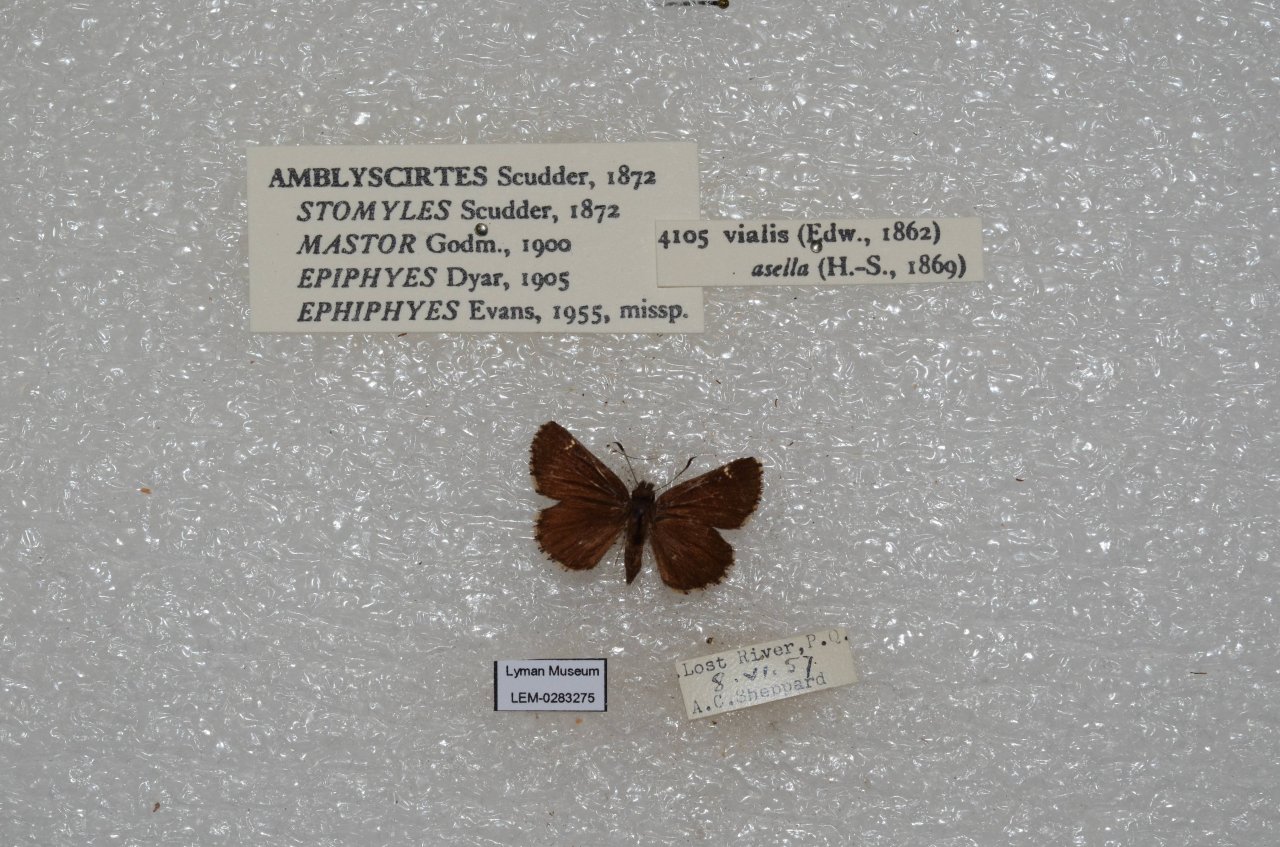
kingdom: Animalia
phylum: Arthropoda
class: Insecta
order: Lepidoptera
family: Hesperiidae
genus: Mastor
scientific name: Mastor vialis
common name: Common Roadside-Skipper
